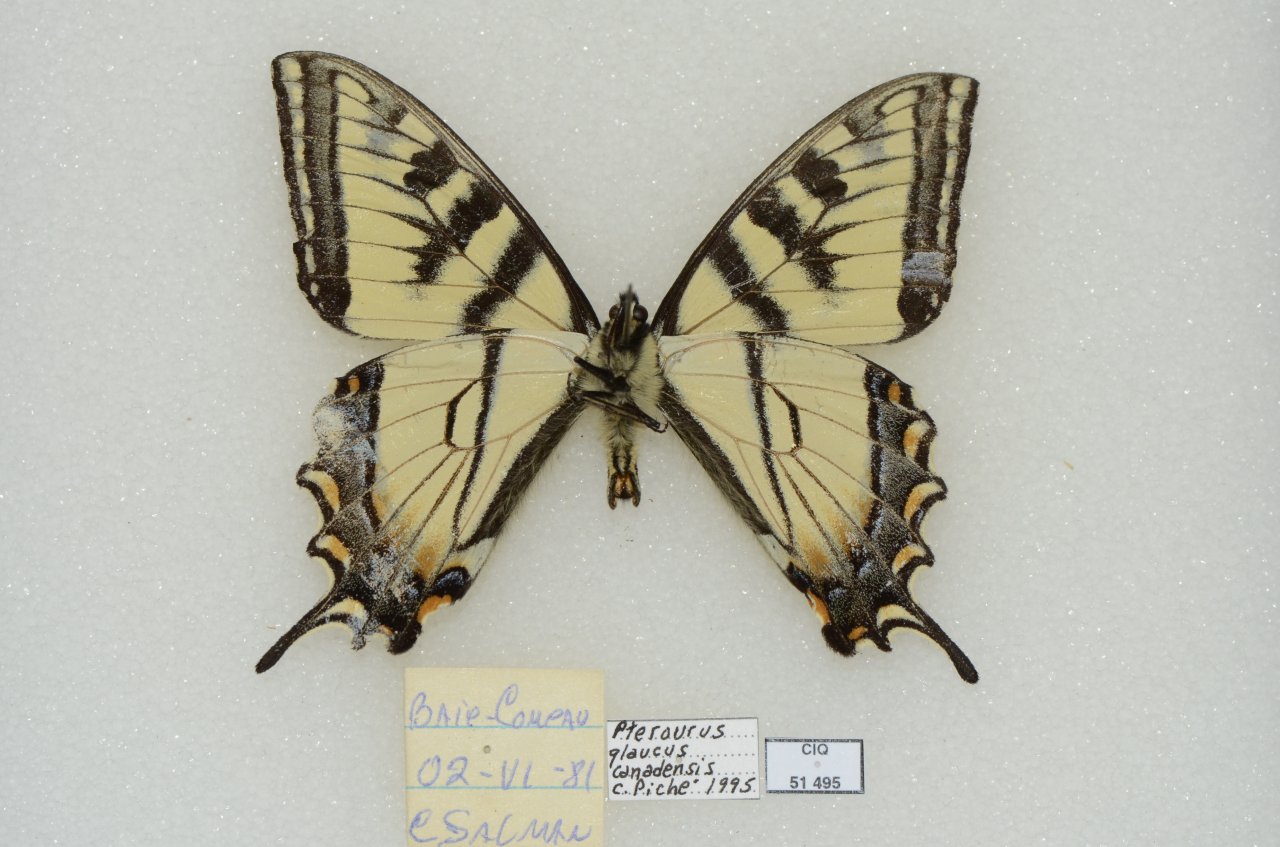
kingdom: Animalia
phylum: Arthropoda
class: Insecta
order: Lepidoptera
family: Papilionidae
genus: Pterourus
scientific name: Pterourus canadensis
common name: Canadian Tiger Swallowtail
